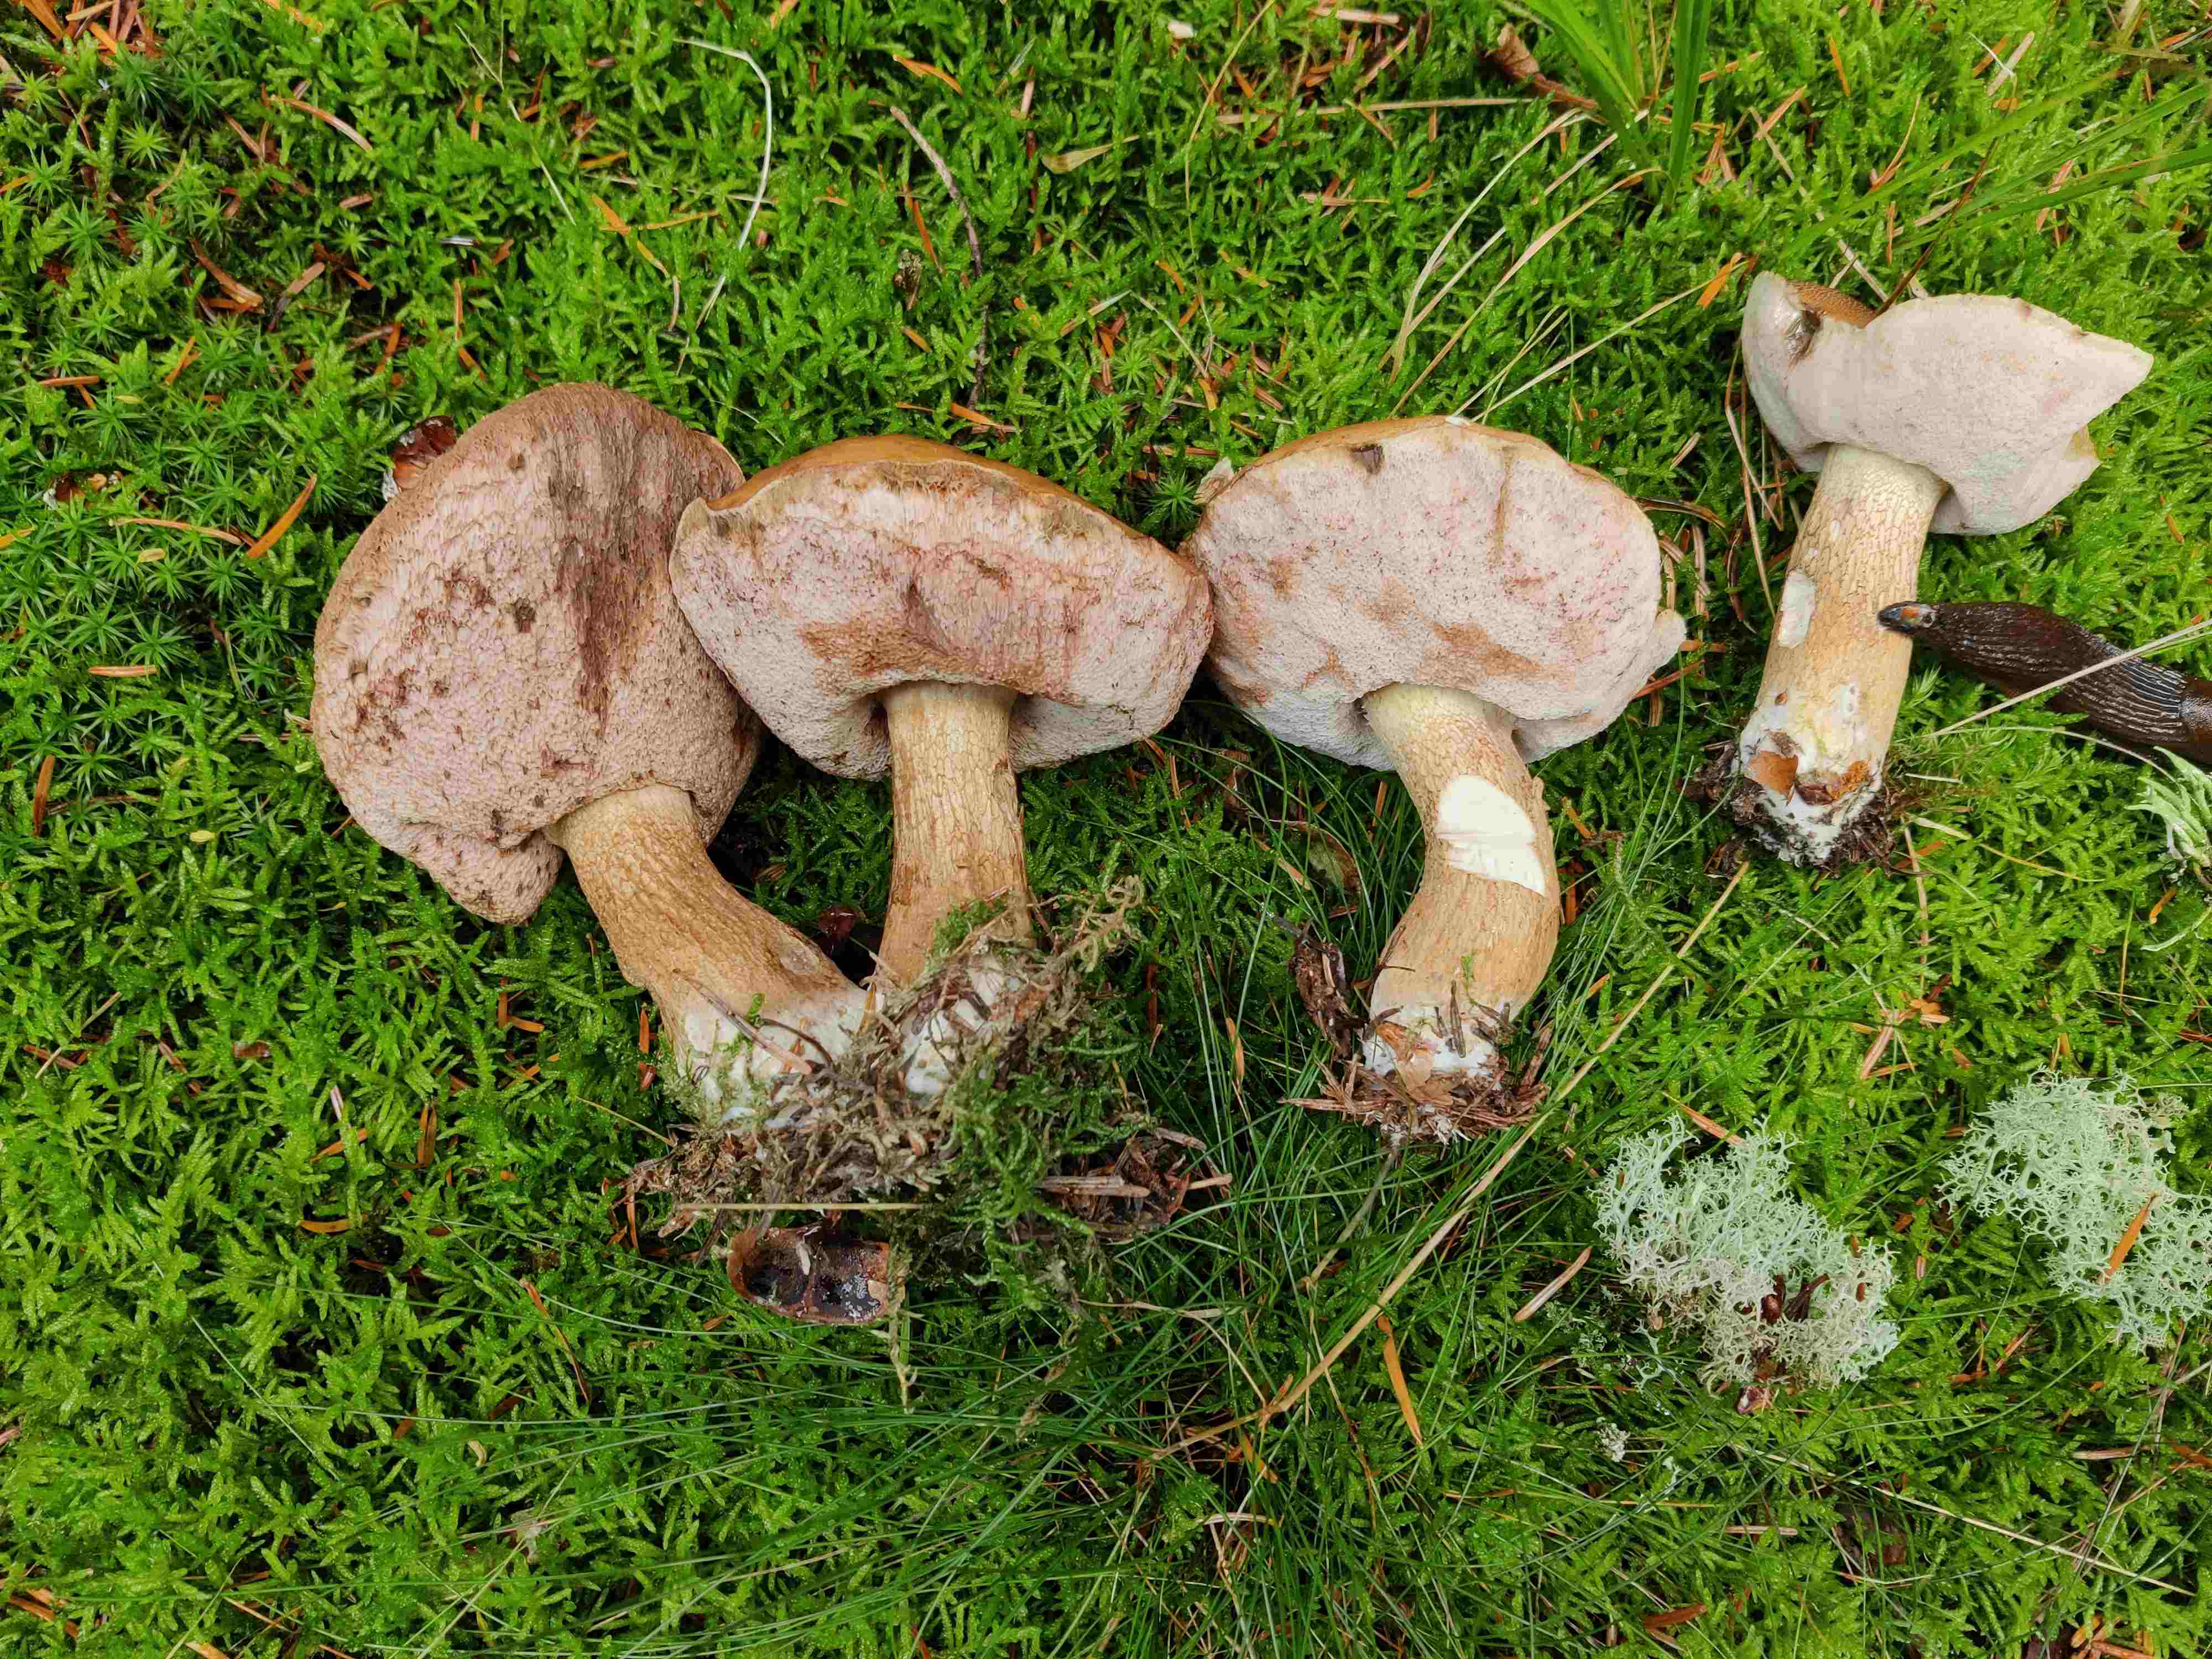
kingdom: Fungi
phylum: Basidiomycota
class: Agaricomycetes
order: Boletales
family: Boletaceae
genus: Tylopilus
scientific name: Tylopilus felleus
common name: galderørhat
